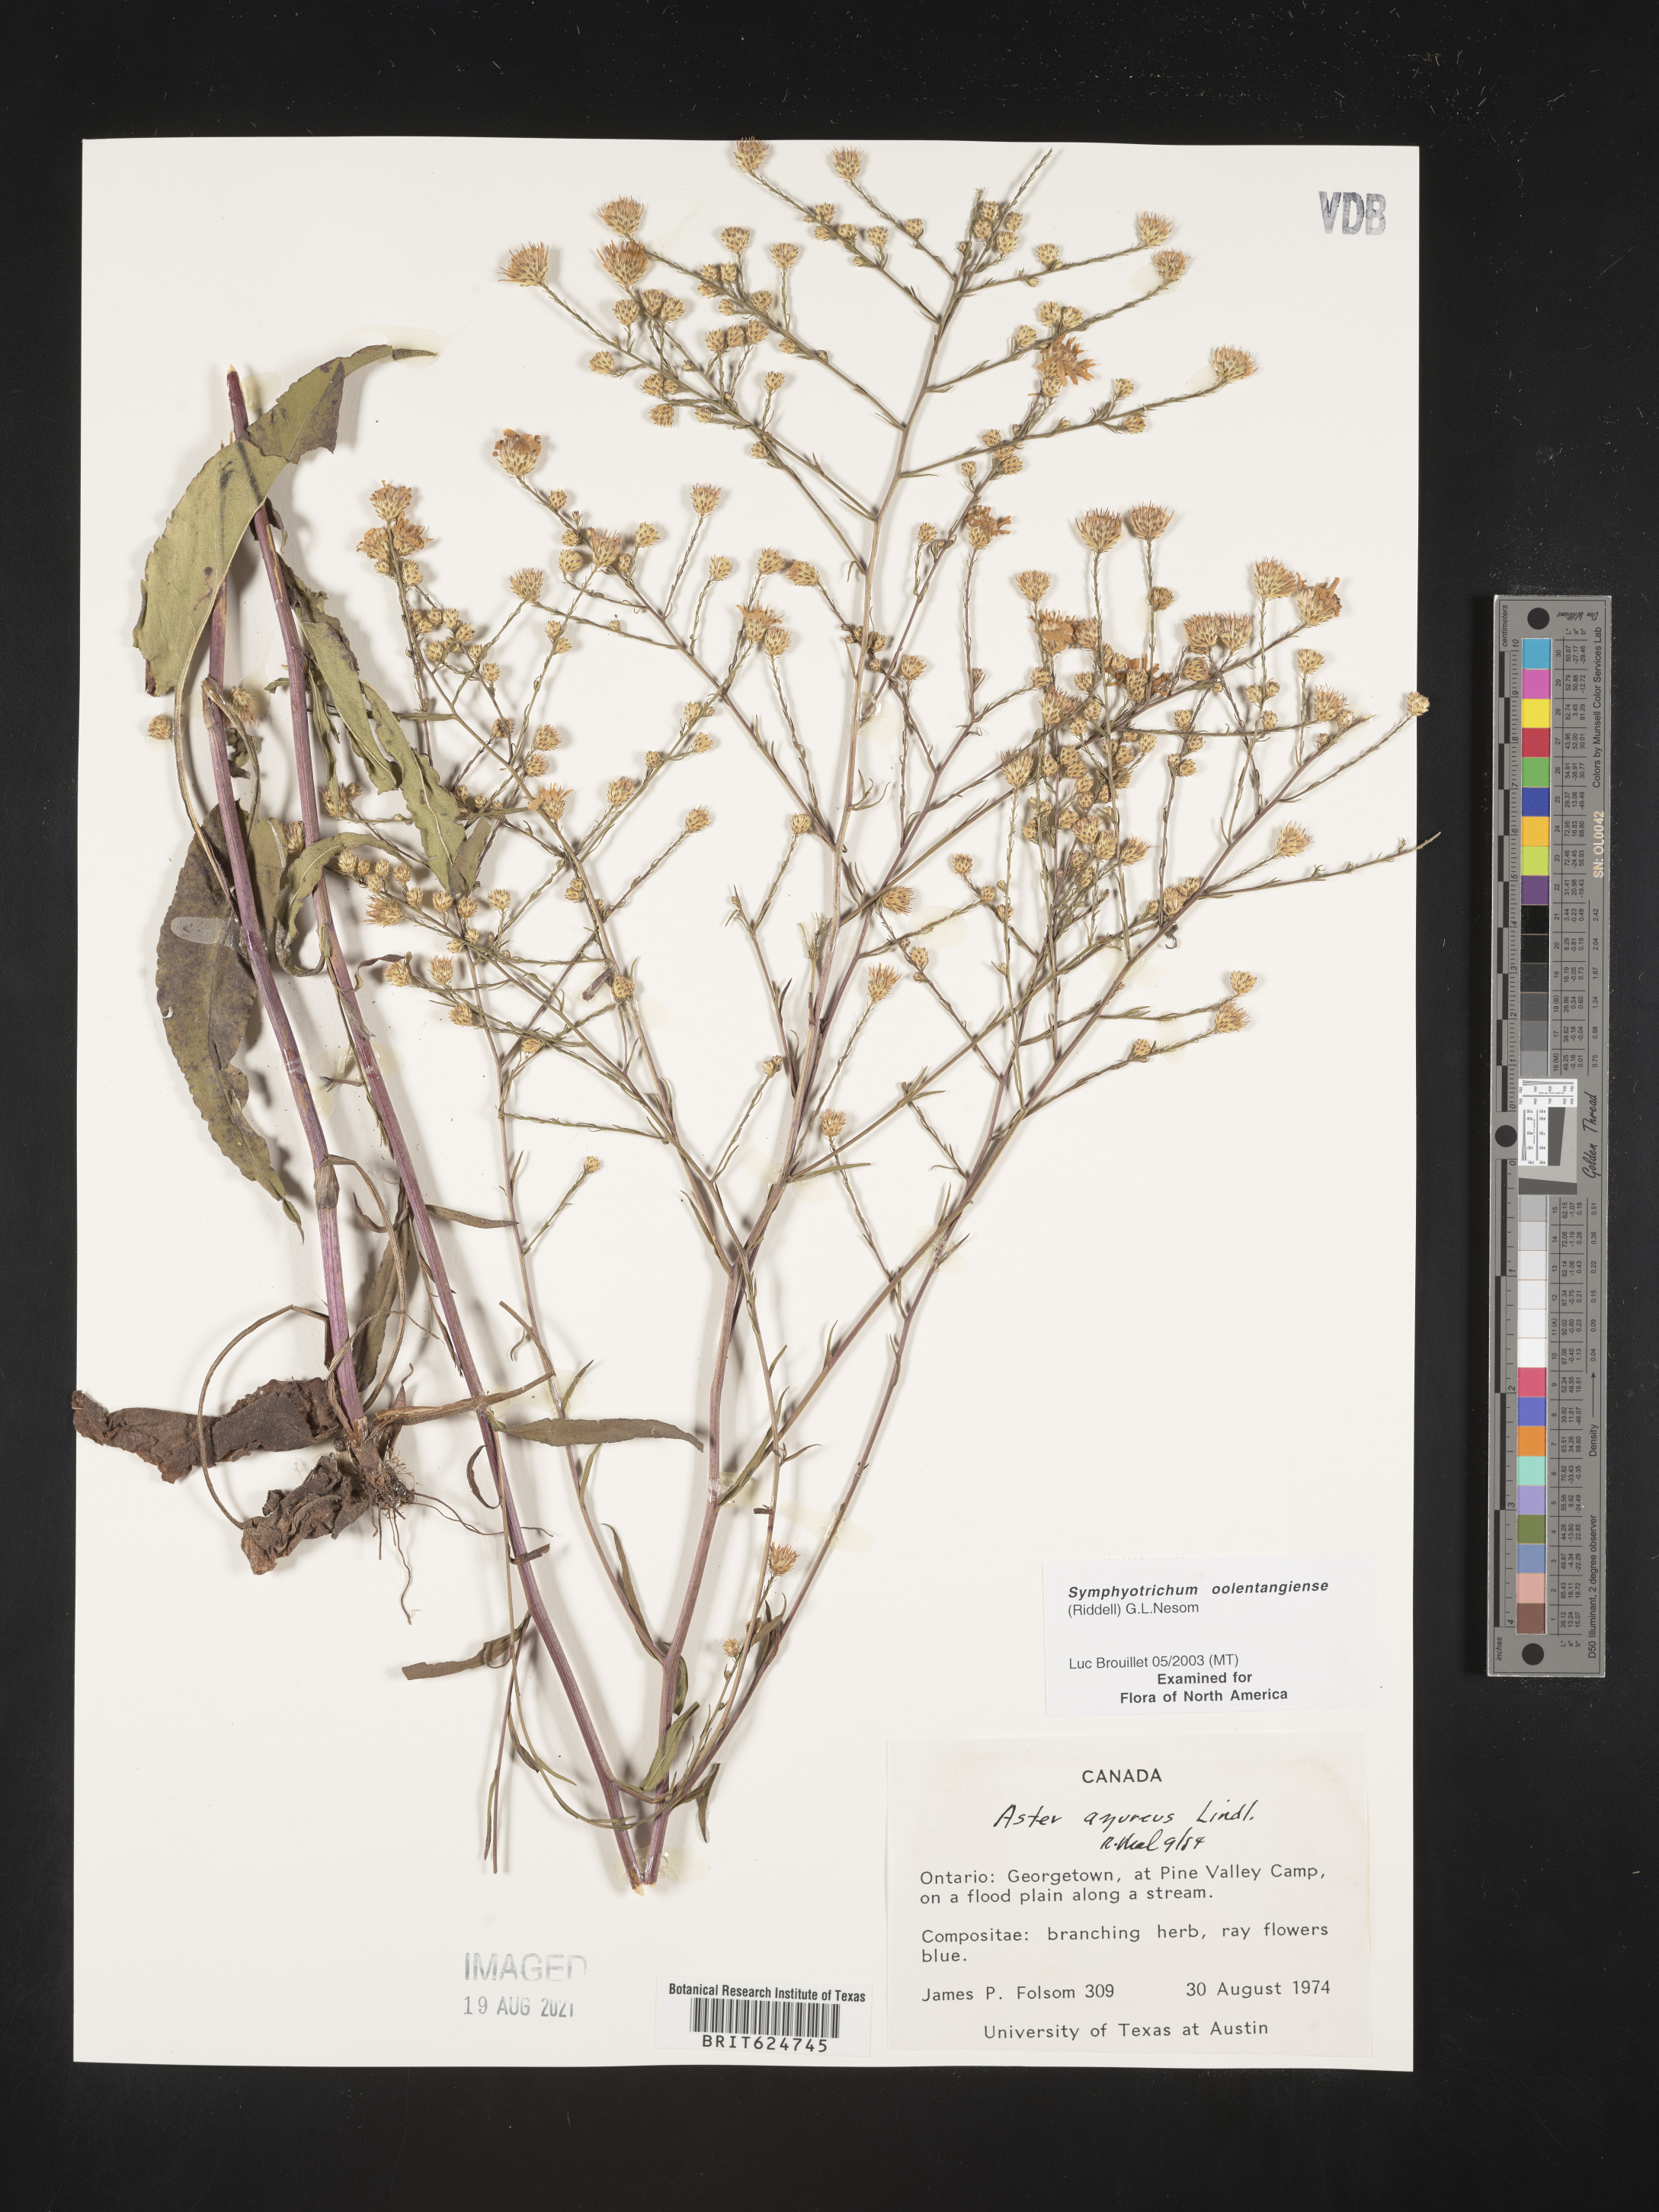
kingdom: Plantae
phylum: Tracheophyta
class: Magnoliopsida
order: Asterales
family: Asteraceae
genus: Symphyotrichum
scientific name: Symphyotrichum shortii
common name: Short's aster
